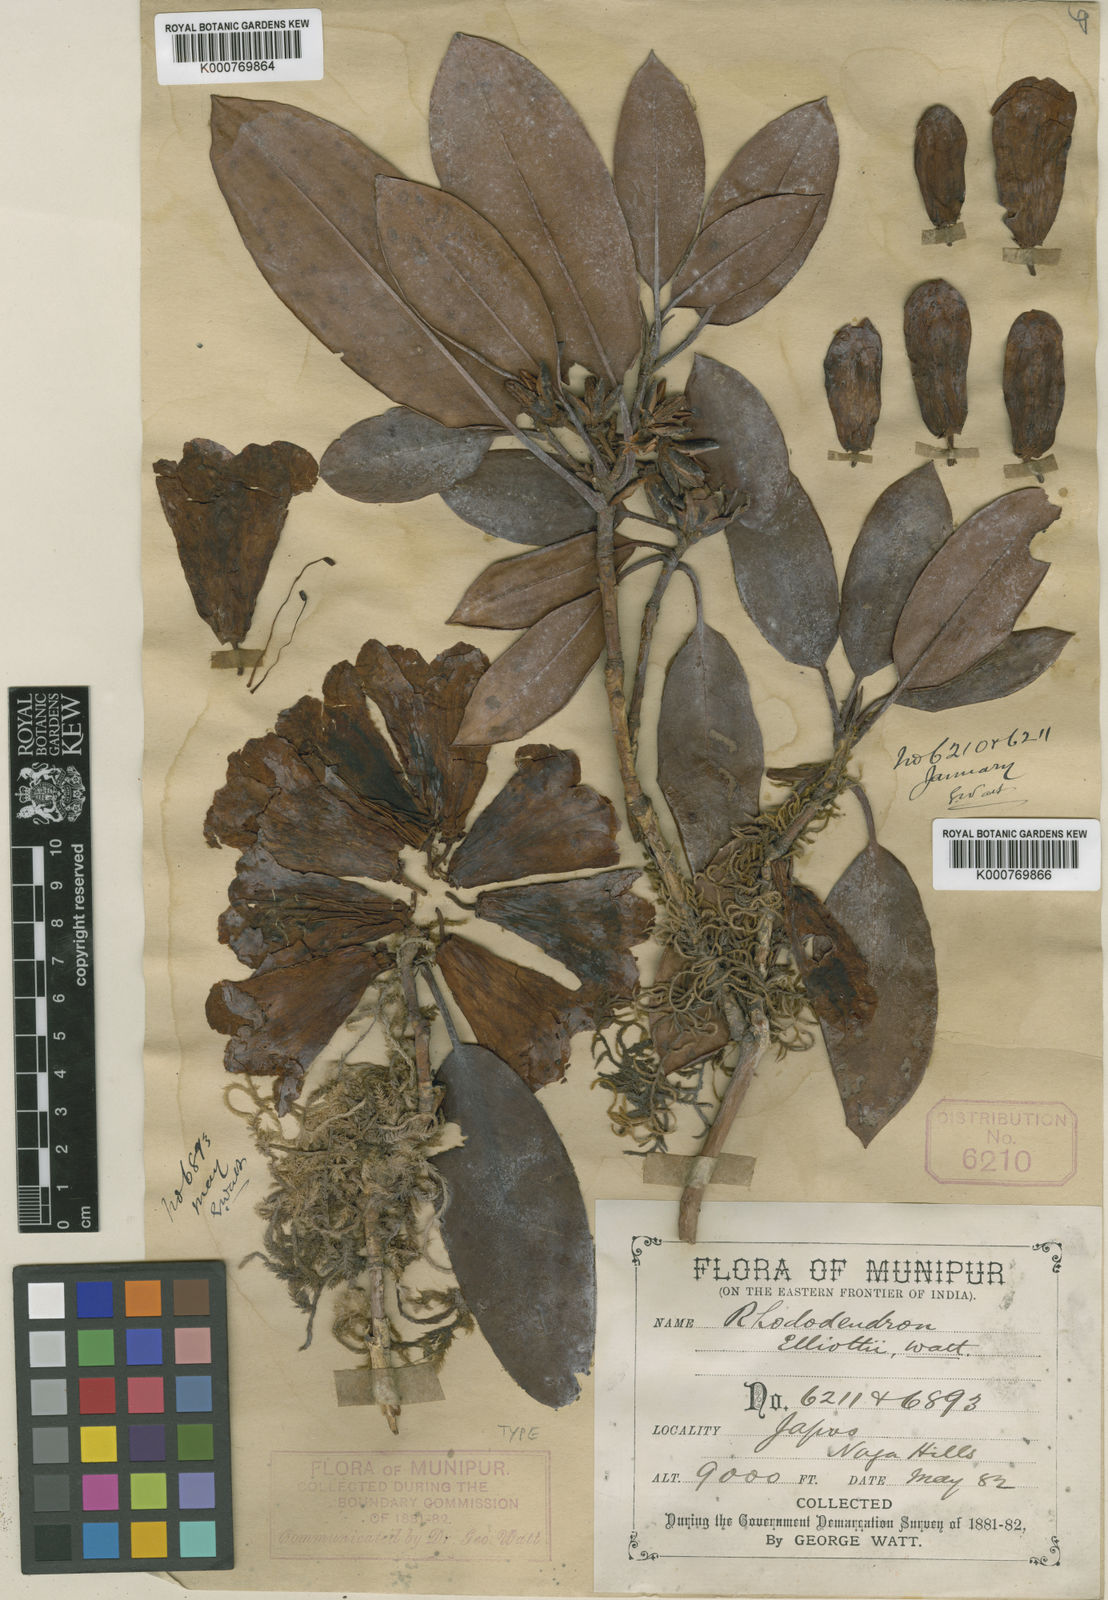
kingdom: Plantae
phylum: Tracheophyta
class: Magnoliopsida
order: Ericales
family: Ericaceae
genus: Rhododendron
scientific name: Rhododendron
